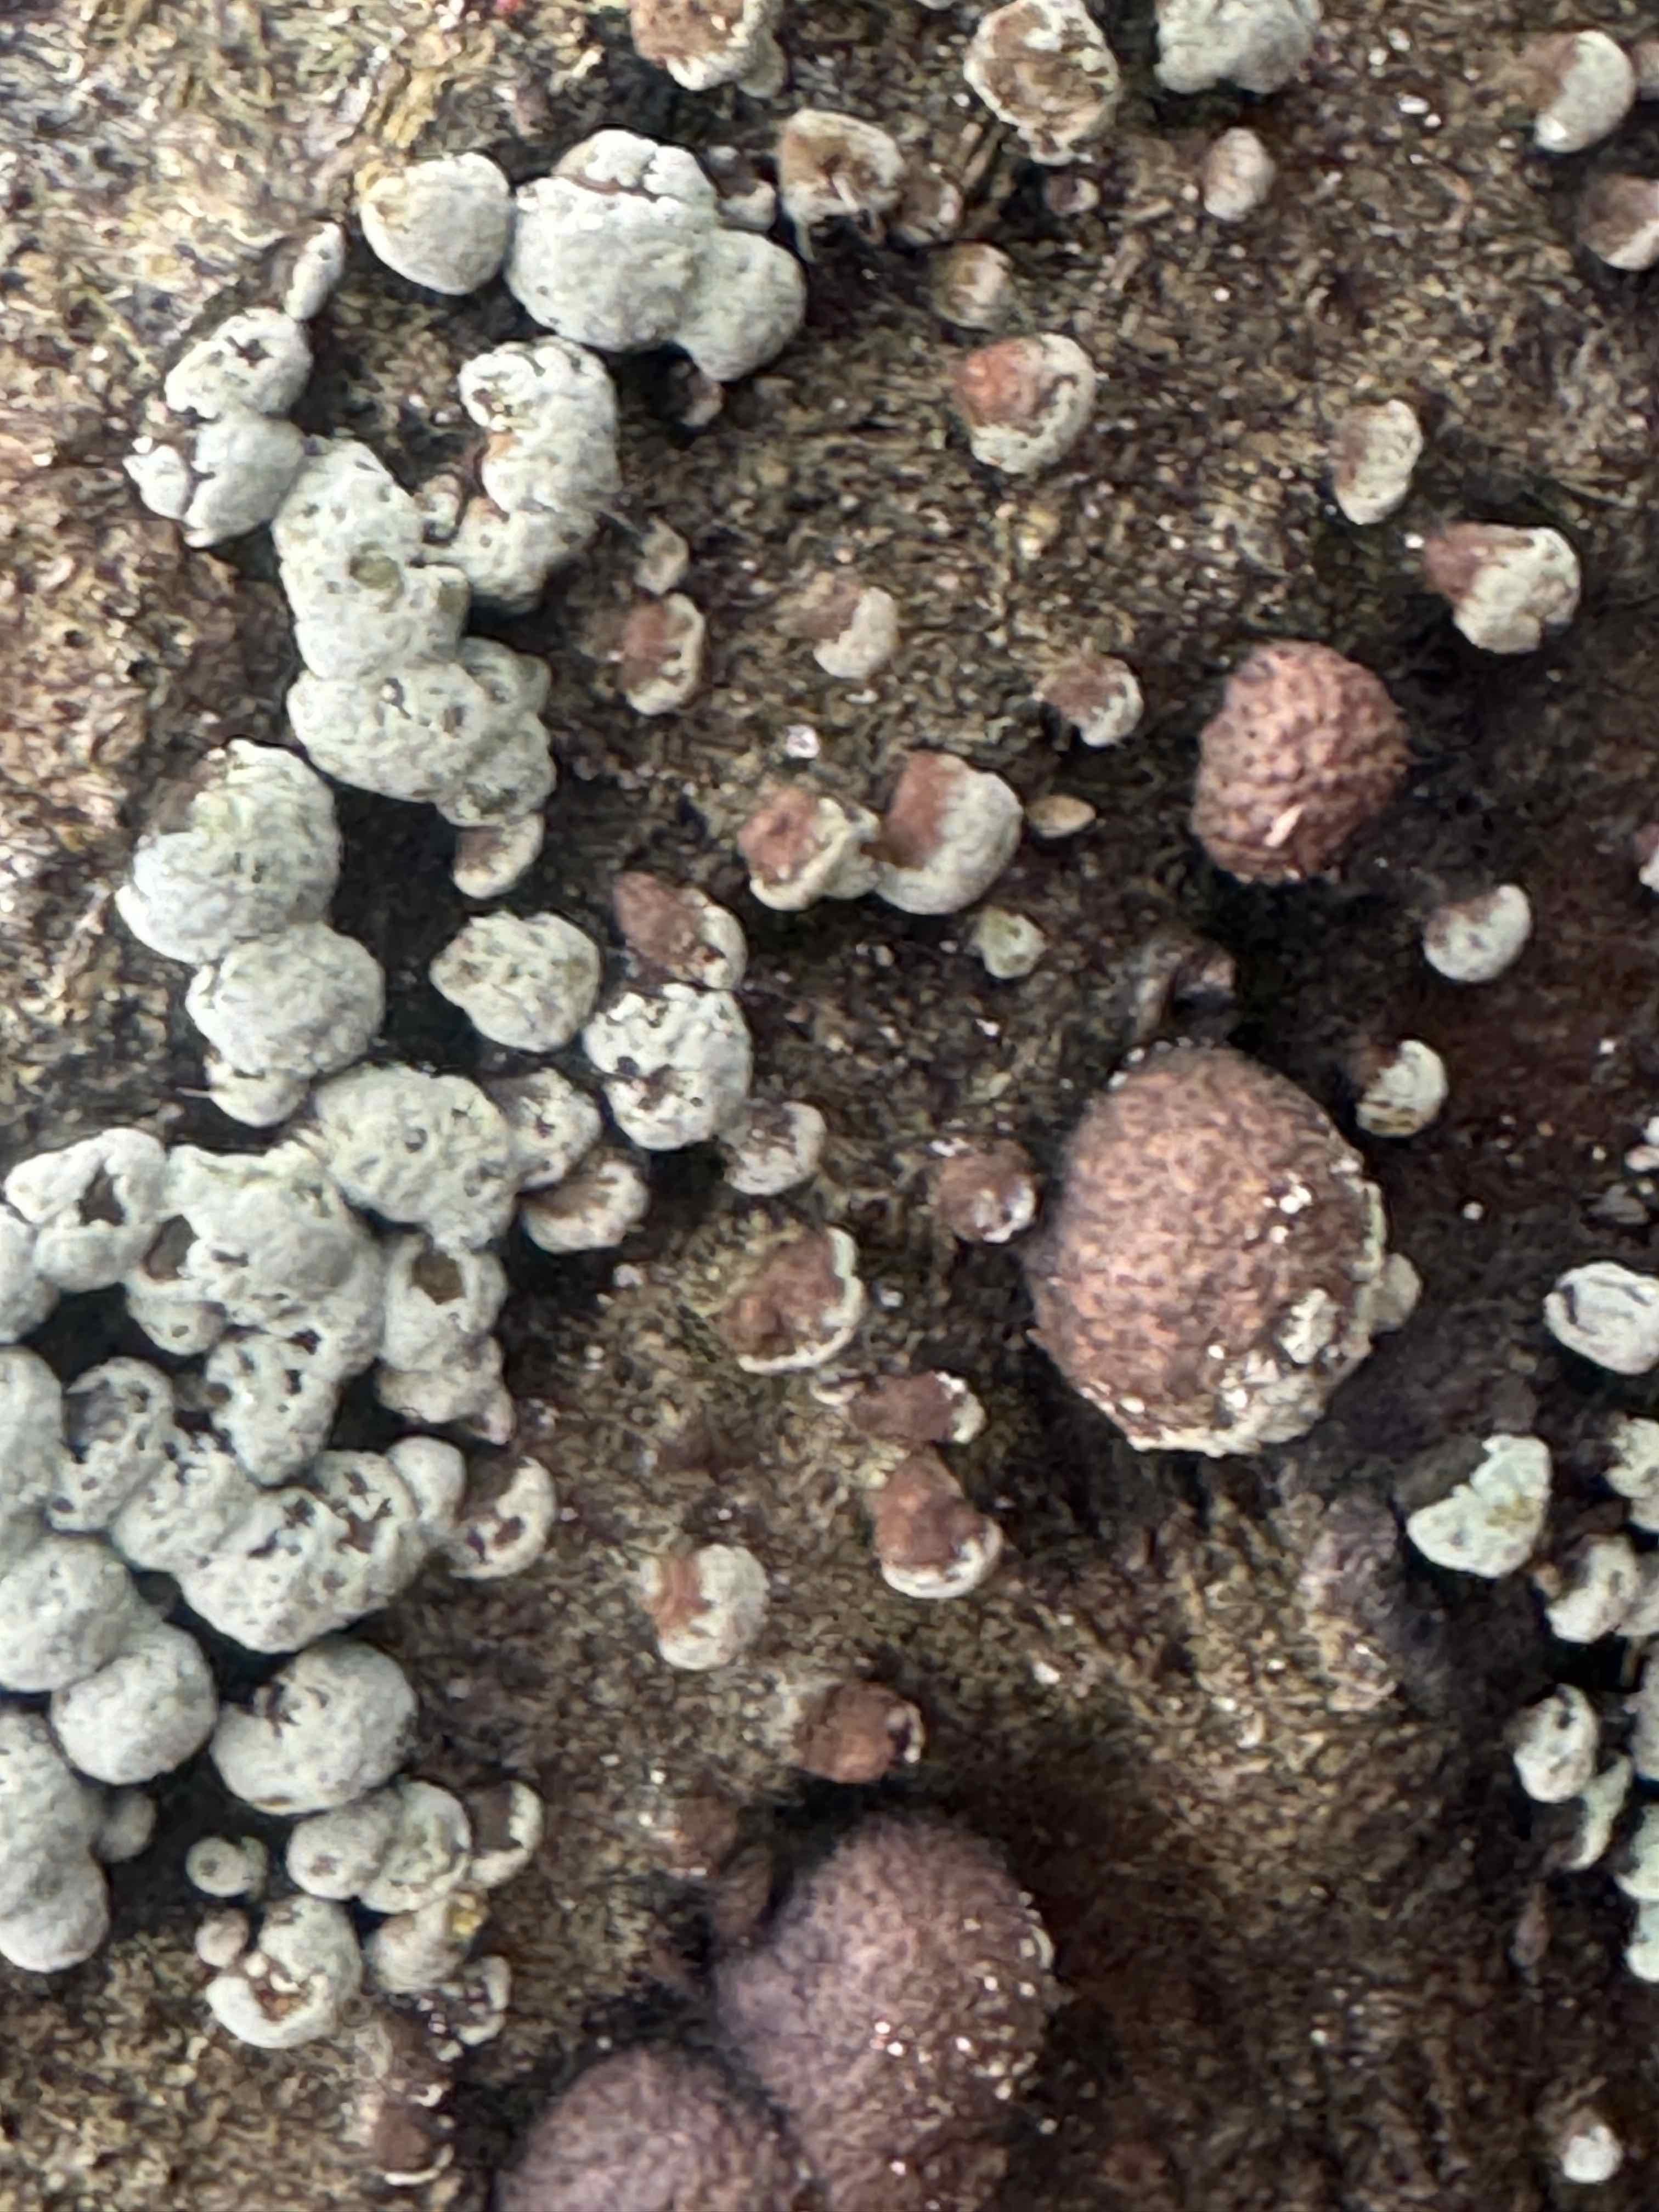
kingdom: Fungi
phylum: Ascomycota
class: Sordariomycetes
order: Xylariales
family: Hypoxylaceae
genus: Hypoxylon
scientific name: Hypoxylon fragiforme
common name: kuljordbær
